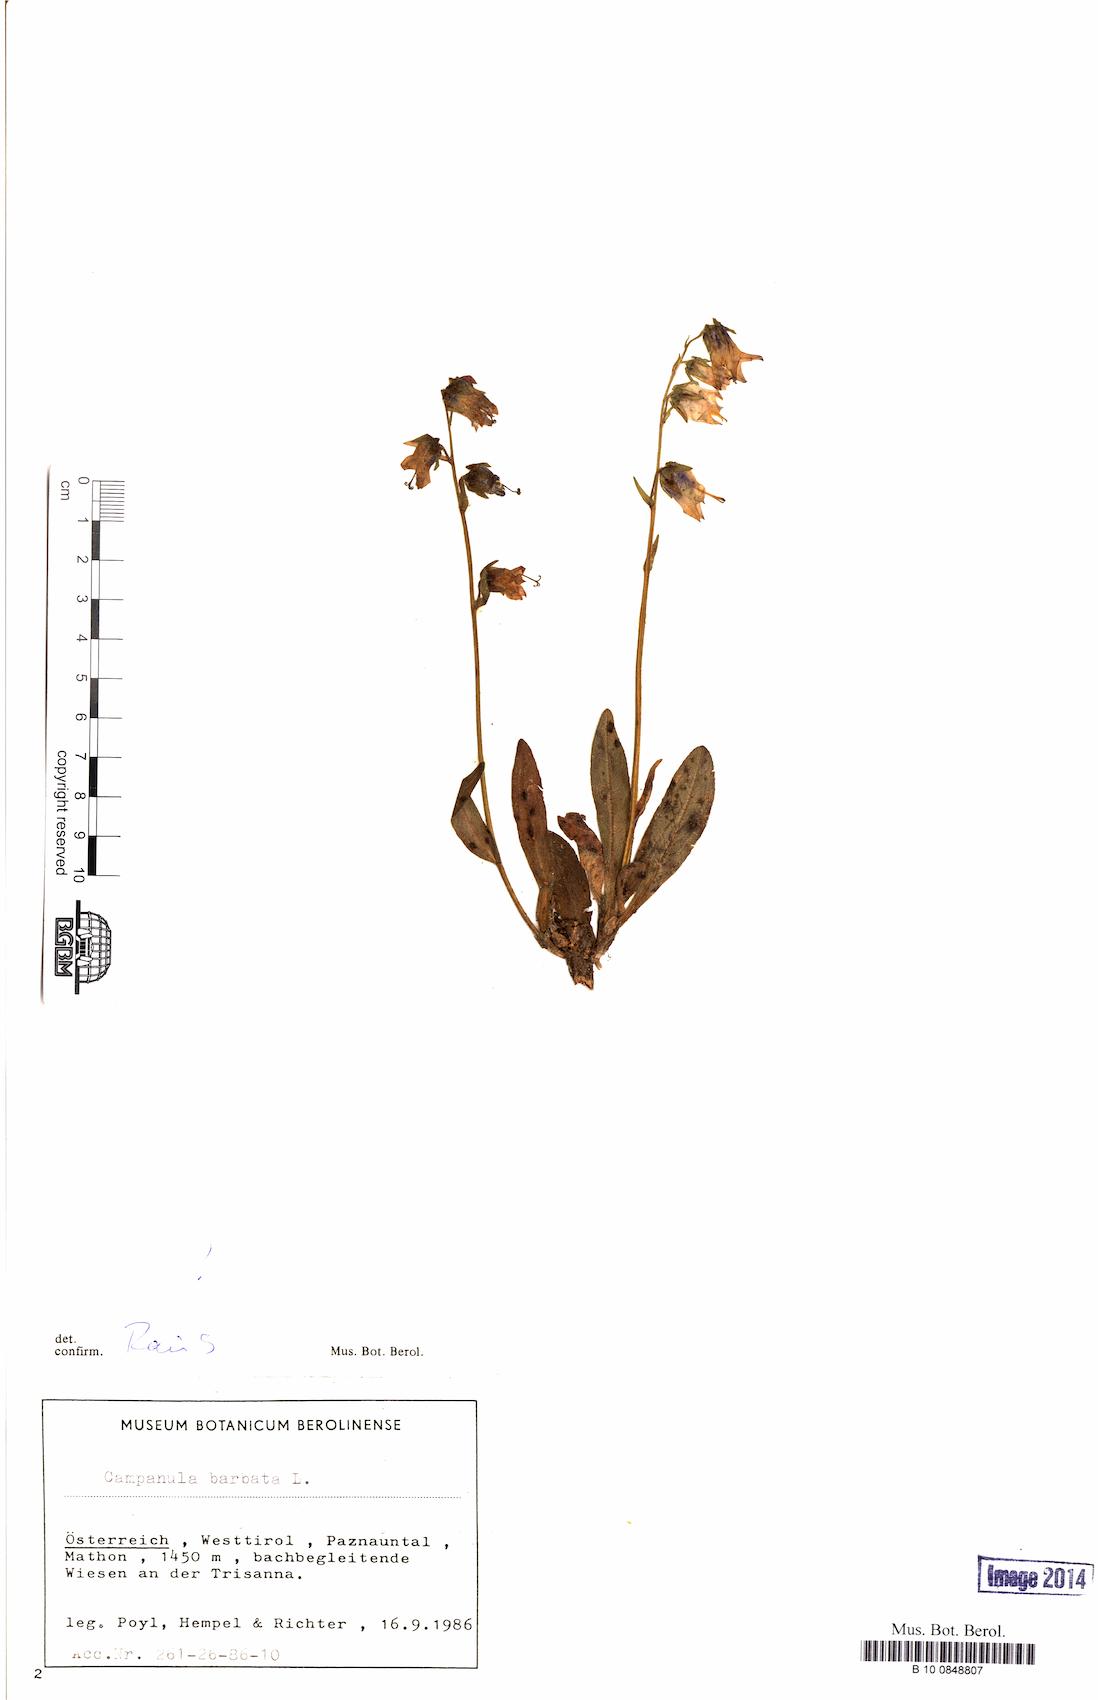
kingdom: Plantae
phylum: Tracheophyta
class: Magnoliopsida
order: Asterales
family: Campanulaceae
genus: Campanula
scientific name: Campanula barbata
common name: Bearded bellflower
